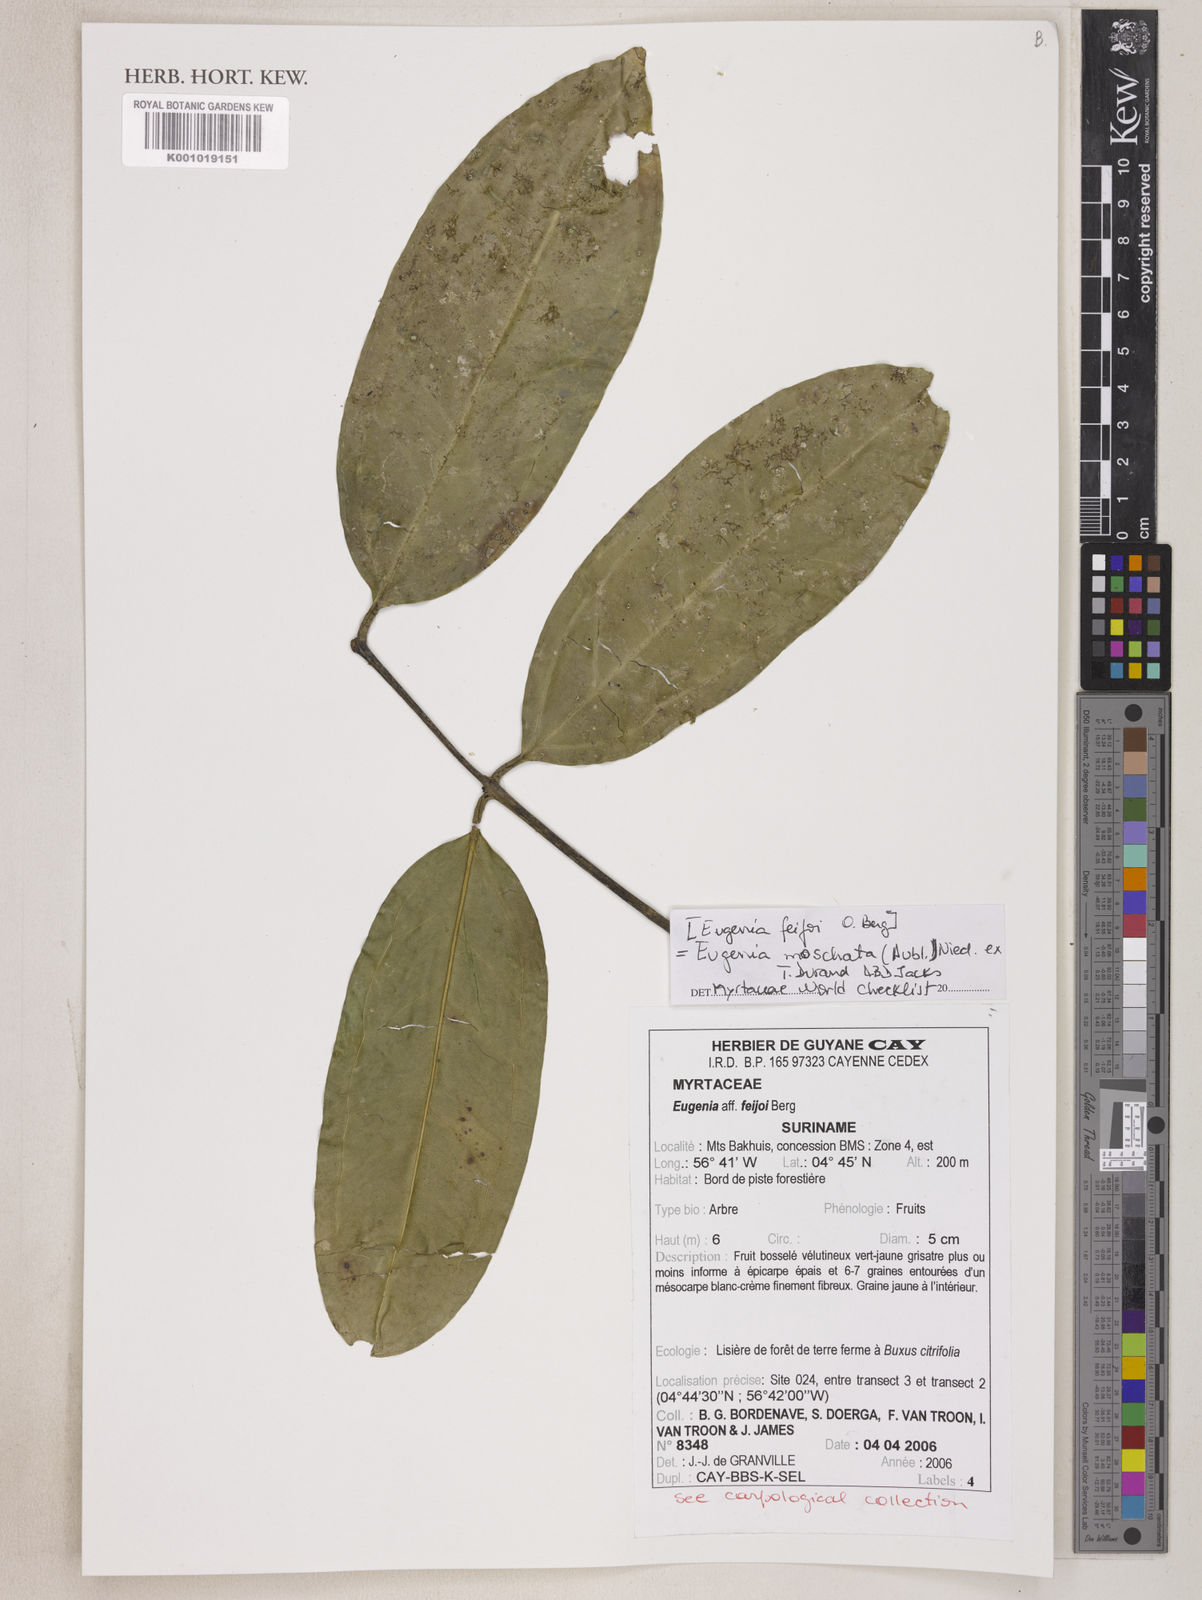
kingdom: Plantae
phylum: Tracheophyta
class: Magnoliopsida
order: Myrtales
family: Myrtaceae
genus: Calycorectes
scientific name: Calycorectes bergii
